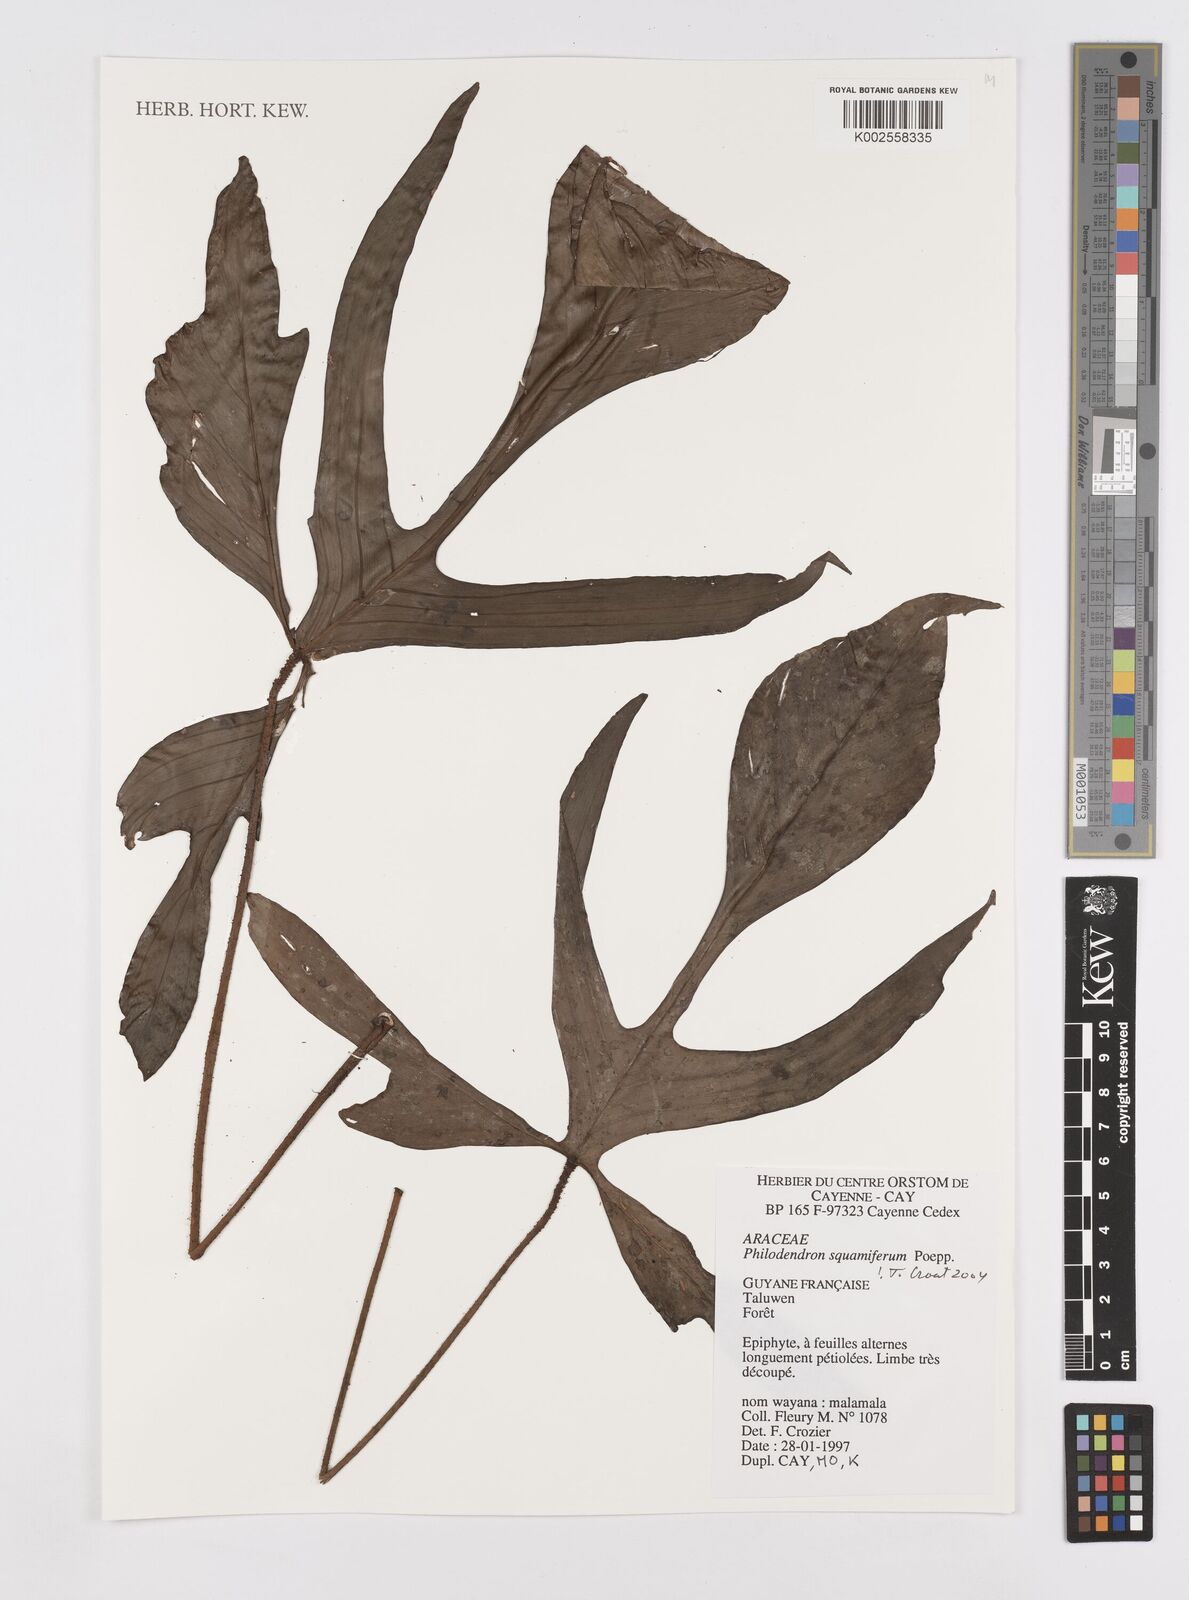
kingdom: Plantae
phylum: Tracheophyta
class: Liliopsida
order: Alismatales
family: Araceae
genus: Philodendron
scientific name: Philodendron squamiferum
